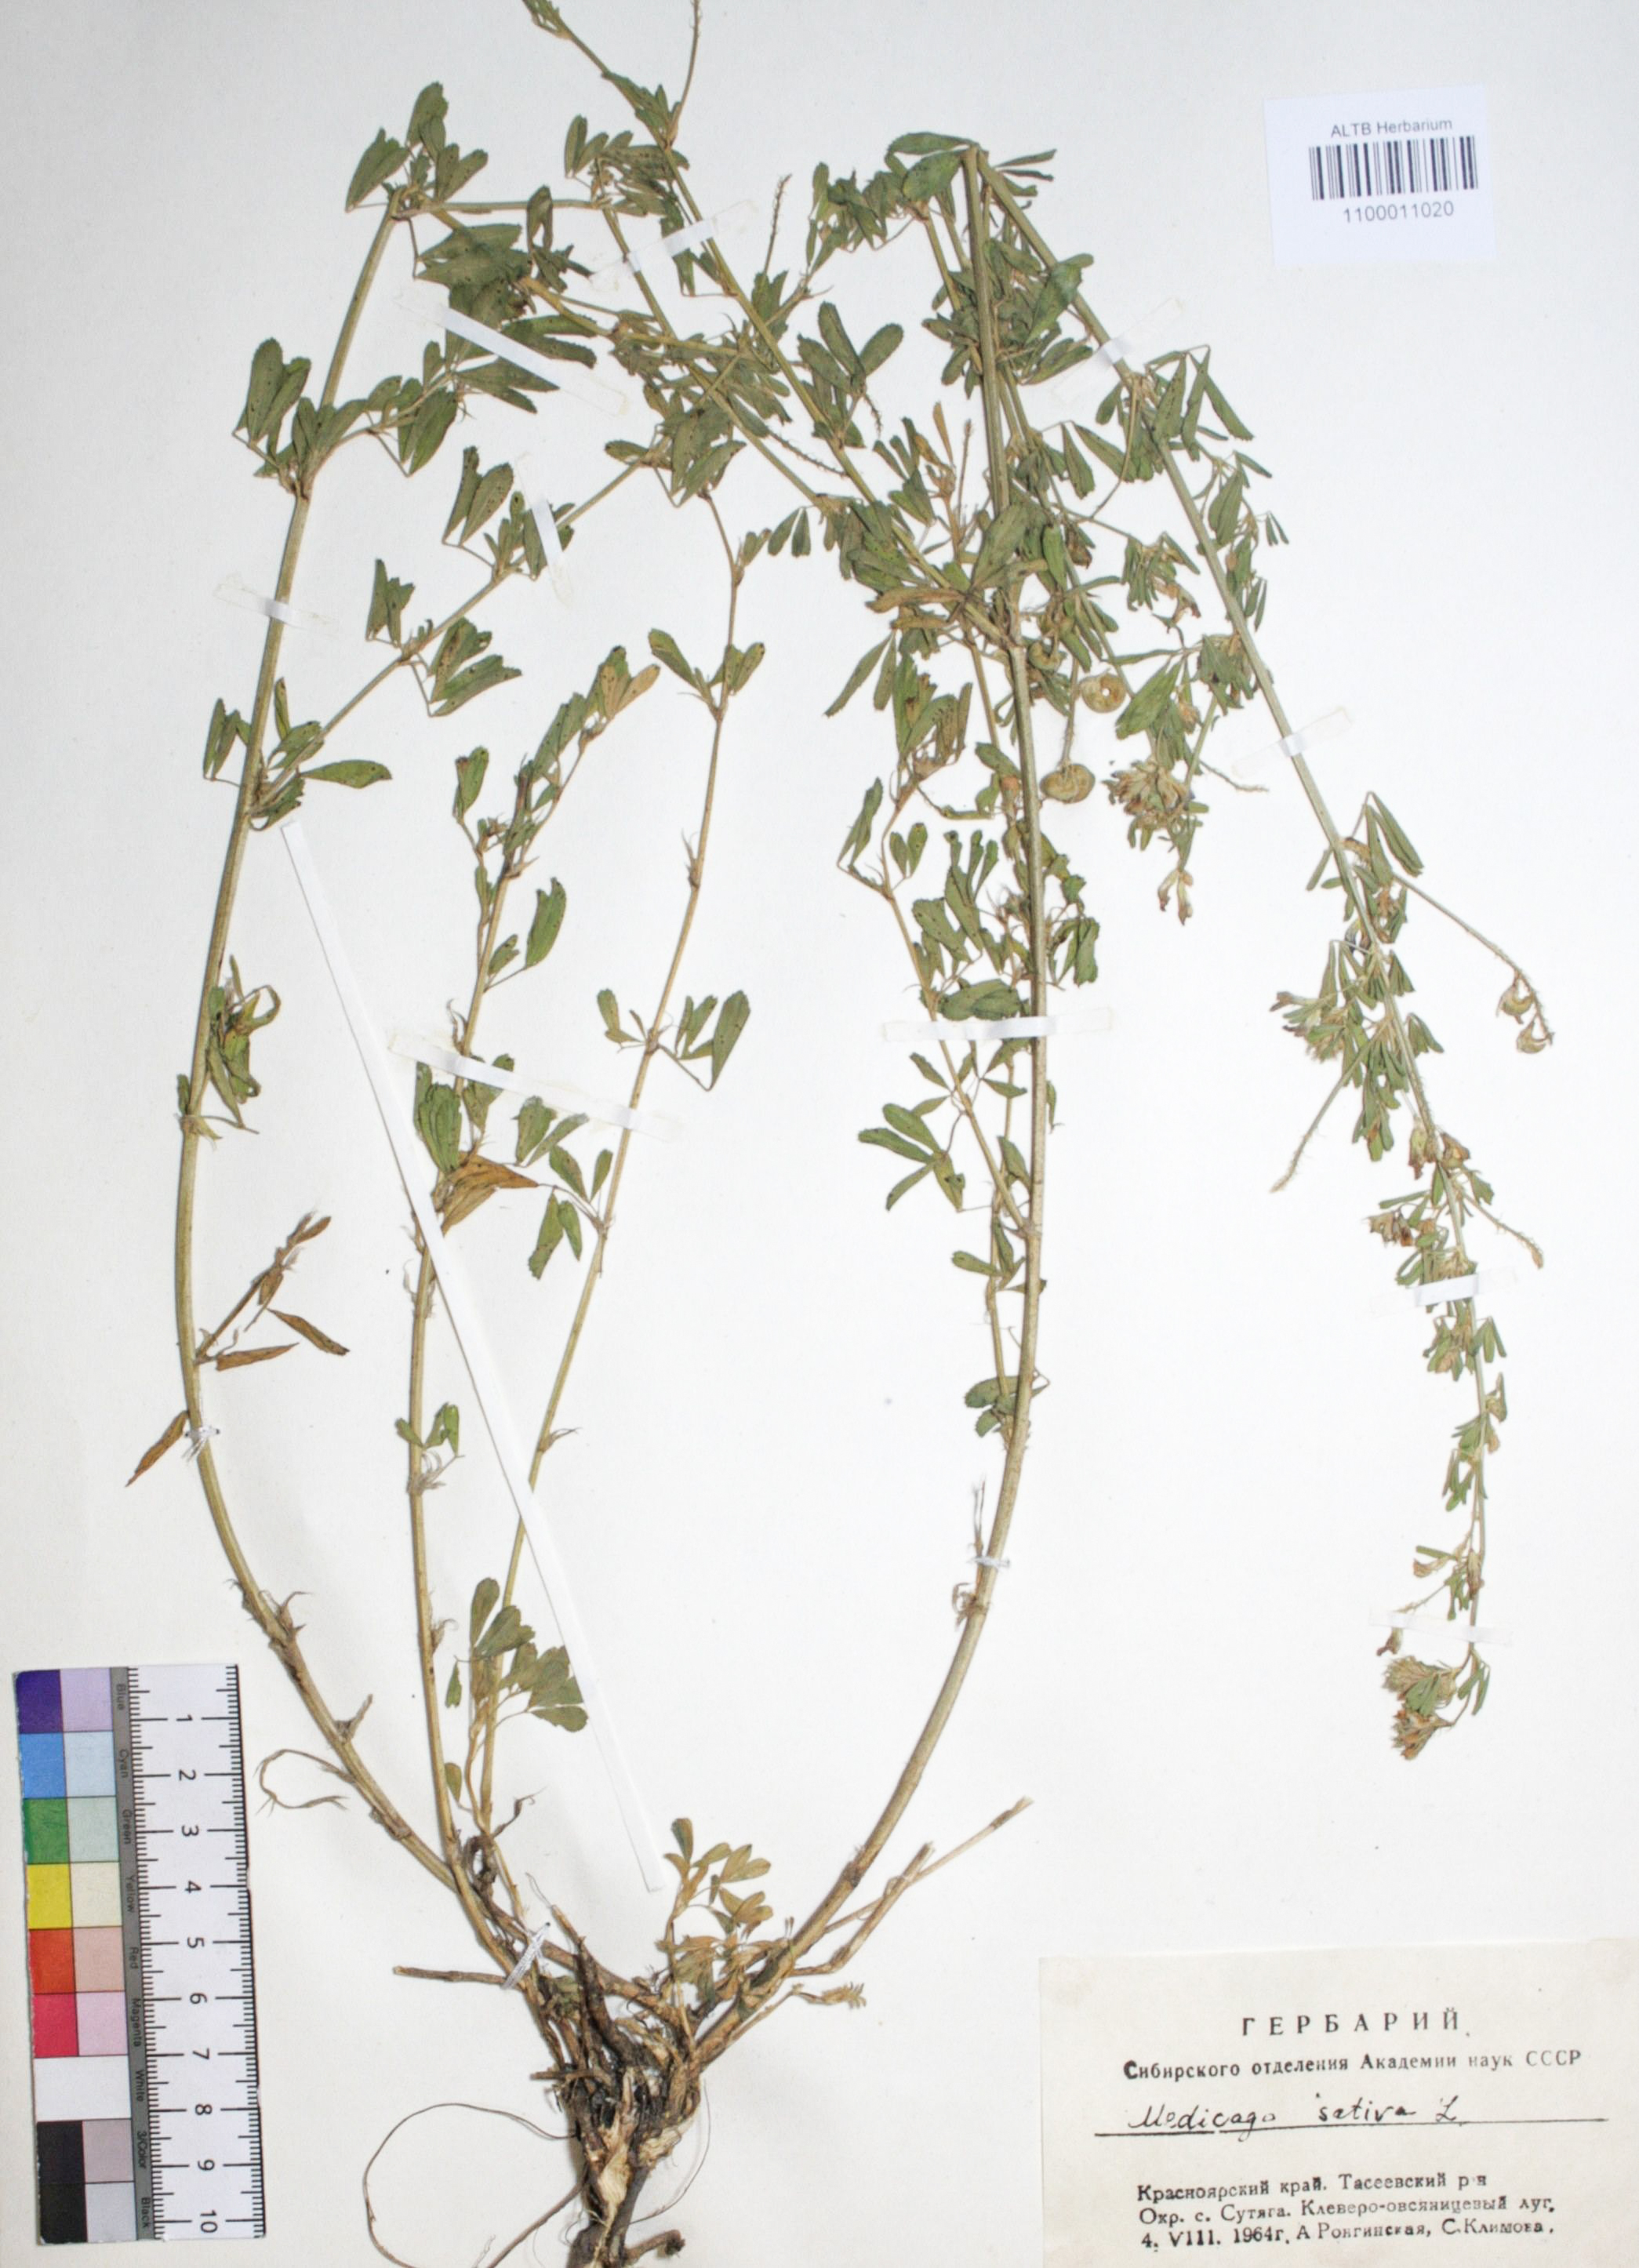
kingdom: Plantae
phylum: Tracheophyta
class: Magnoliopsida
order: Fabales
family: Fabaceae
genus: Medicago
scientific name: Medicago sativa
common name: Alfalfa
